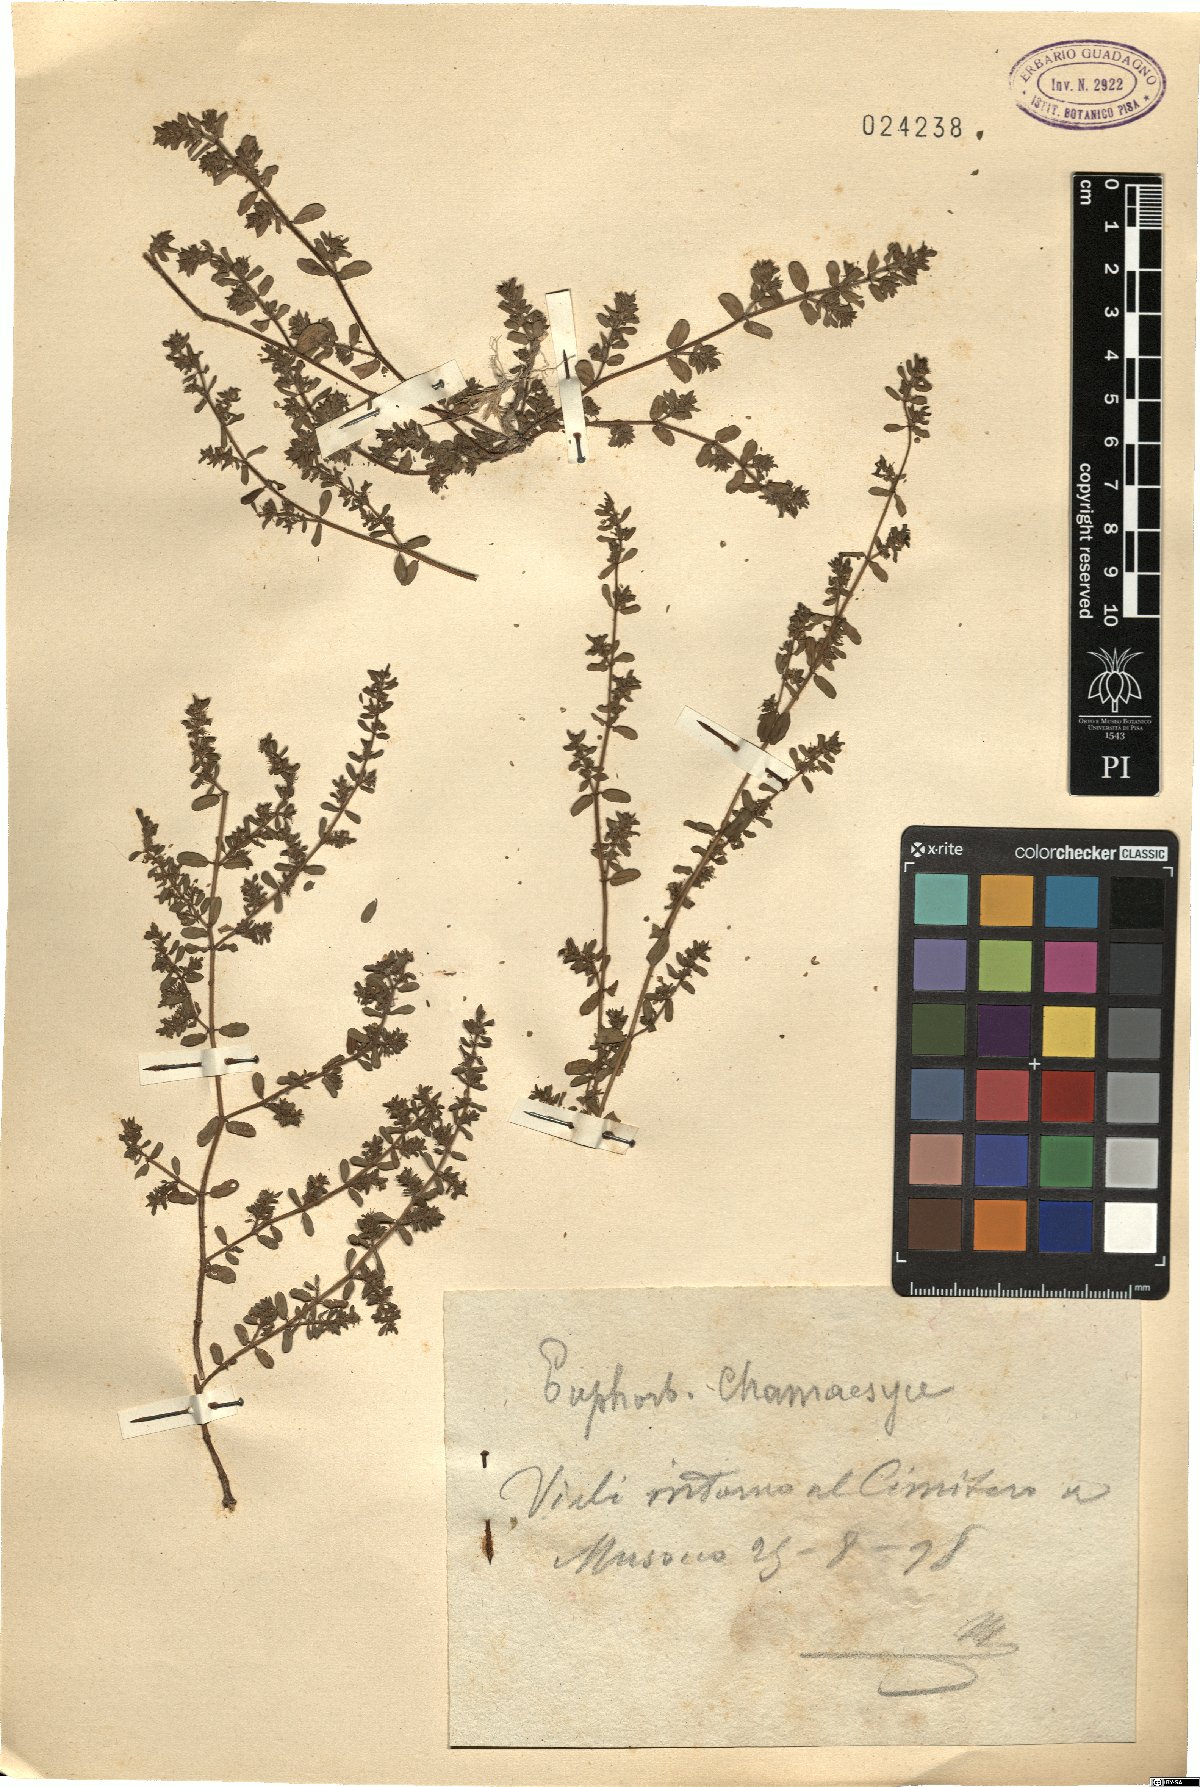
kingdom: Plantae
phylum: Tracheophyta
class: Magnoliopsida
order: Malpighiales
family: Euphorbiaceae
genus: Euphorbia
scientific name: Euphorbia chamaesyce
